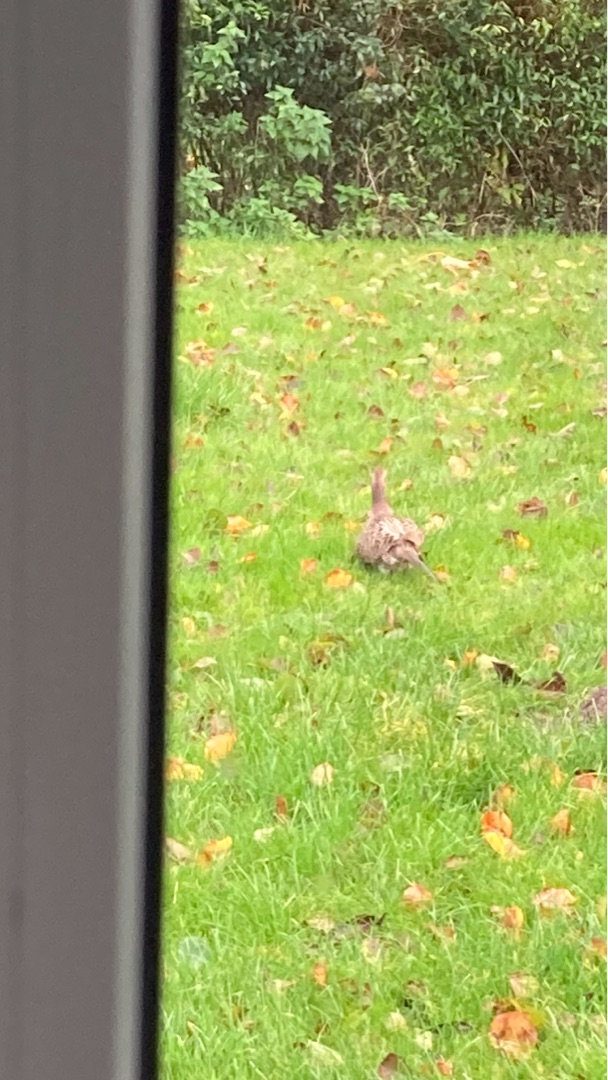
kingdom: Animalia
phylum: Chordata
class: Aves
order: Galliformes
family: Phasianidae
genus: Phasianus
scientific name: Phasianus colchicus
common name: Fasan
